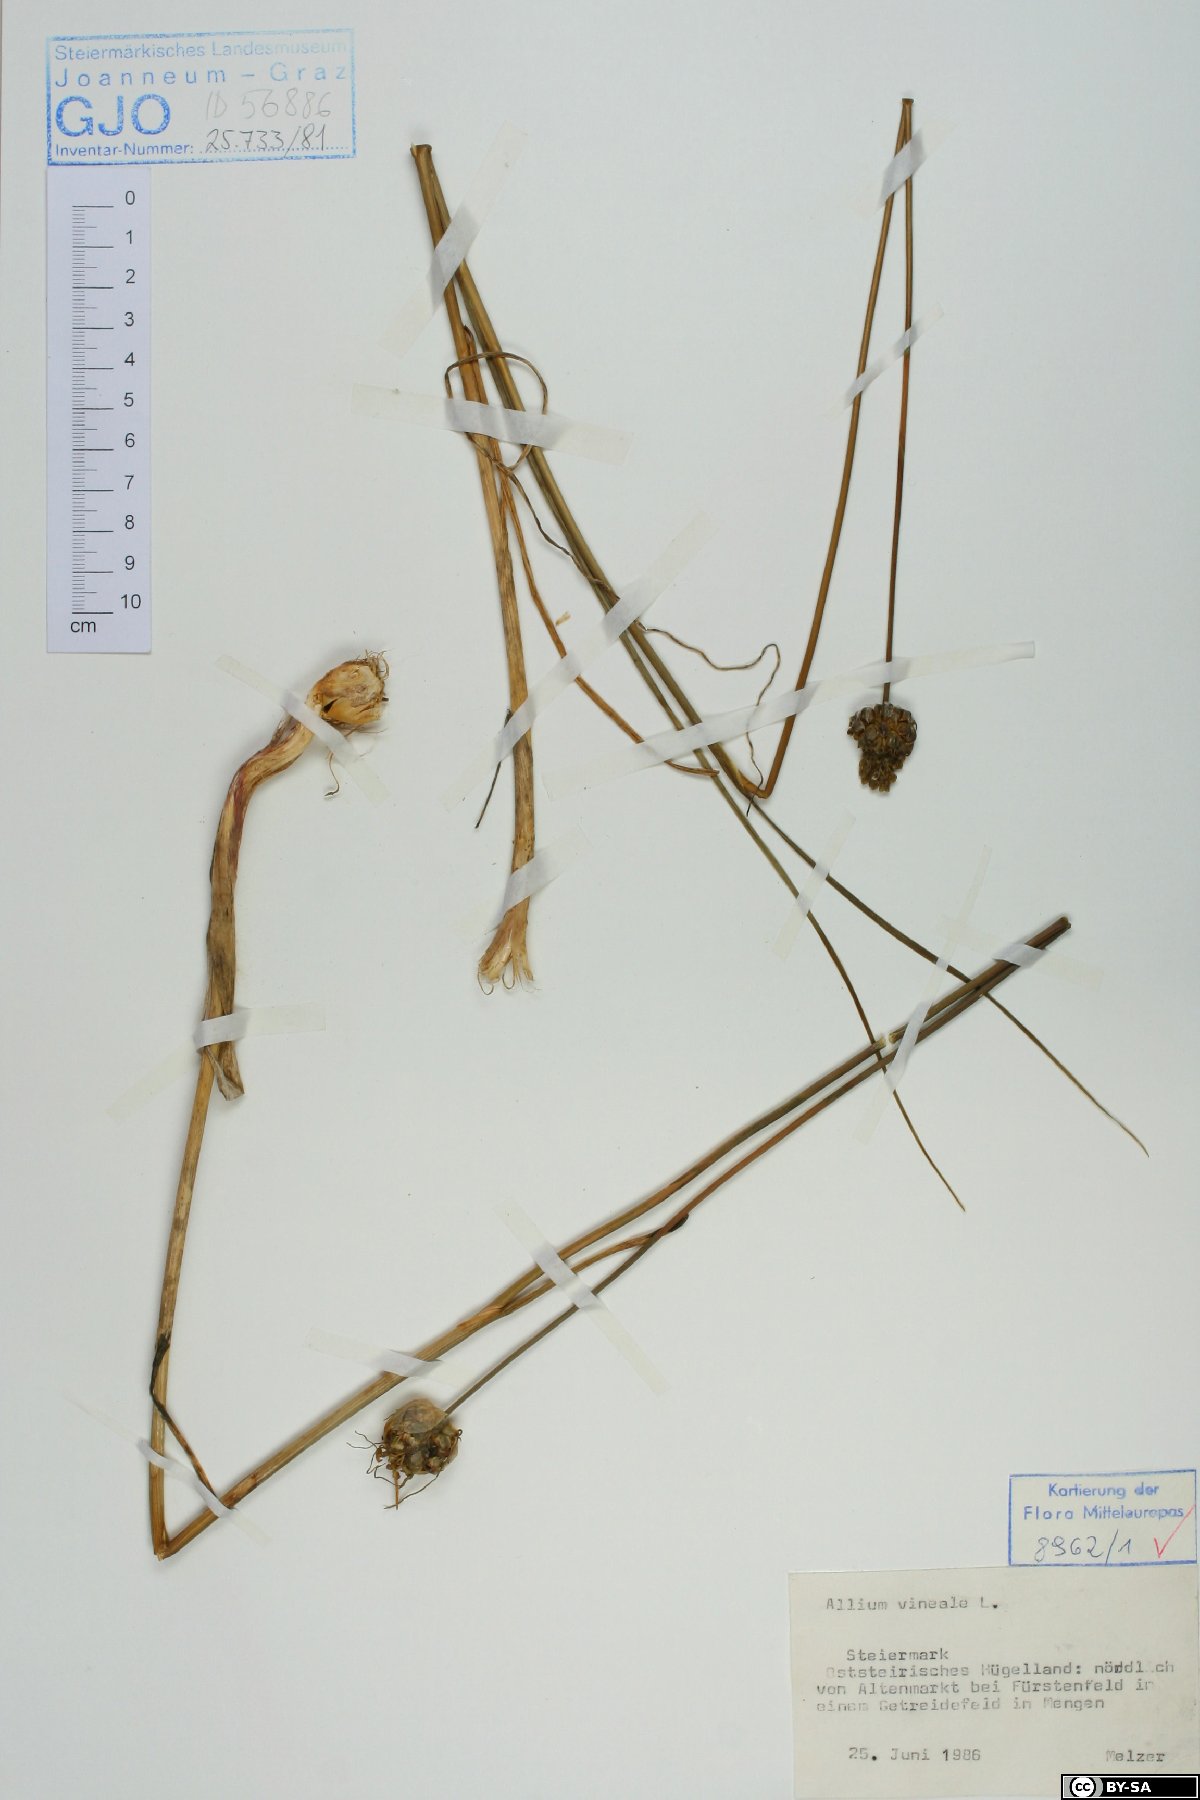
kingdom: Plantae
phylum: Tracheophyta
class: Liliopsida
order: Asparagales
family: Amaryllidaceae
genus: Allium
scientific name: Allium vineale
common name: Crow garlic
